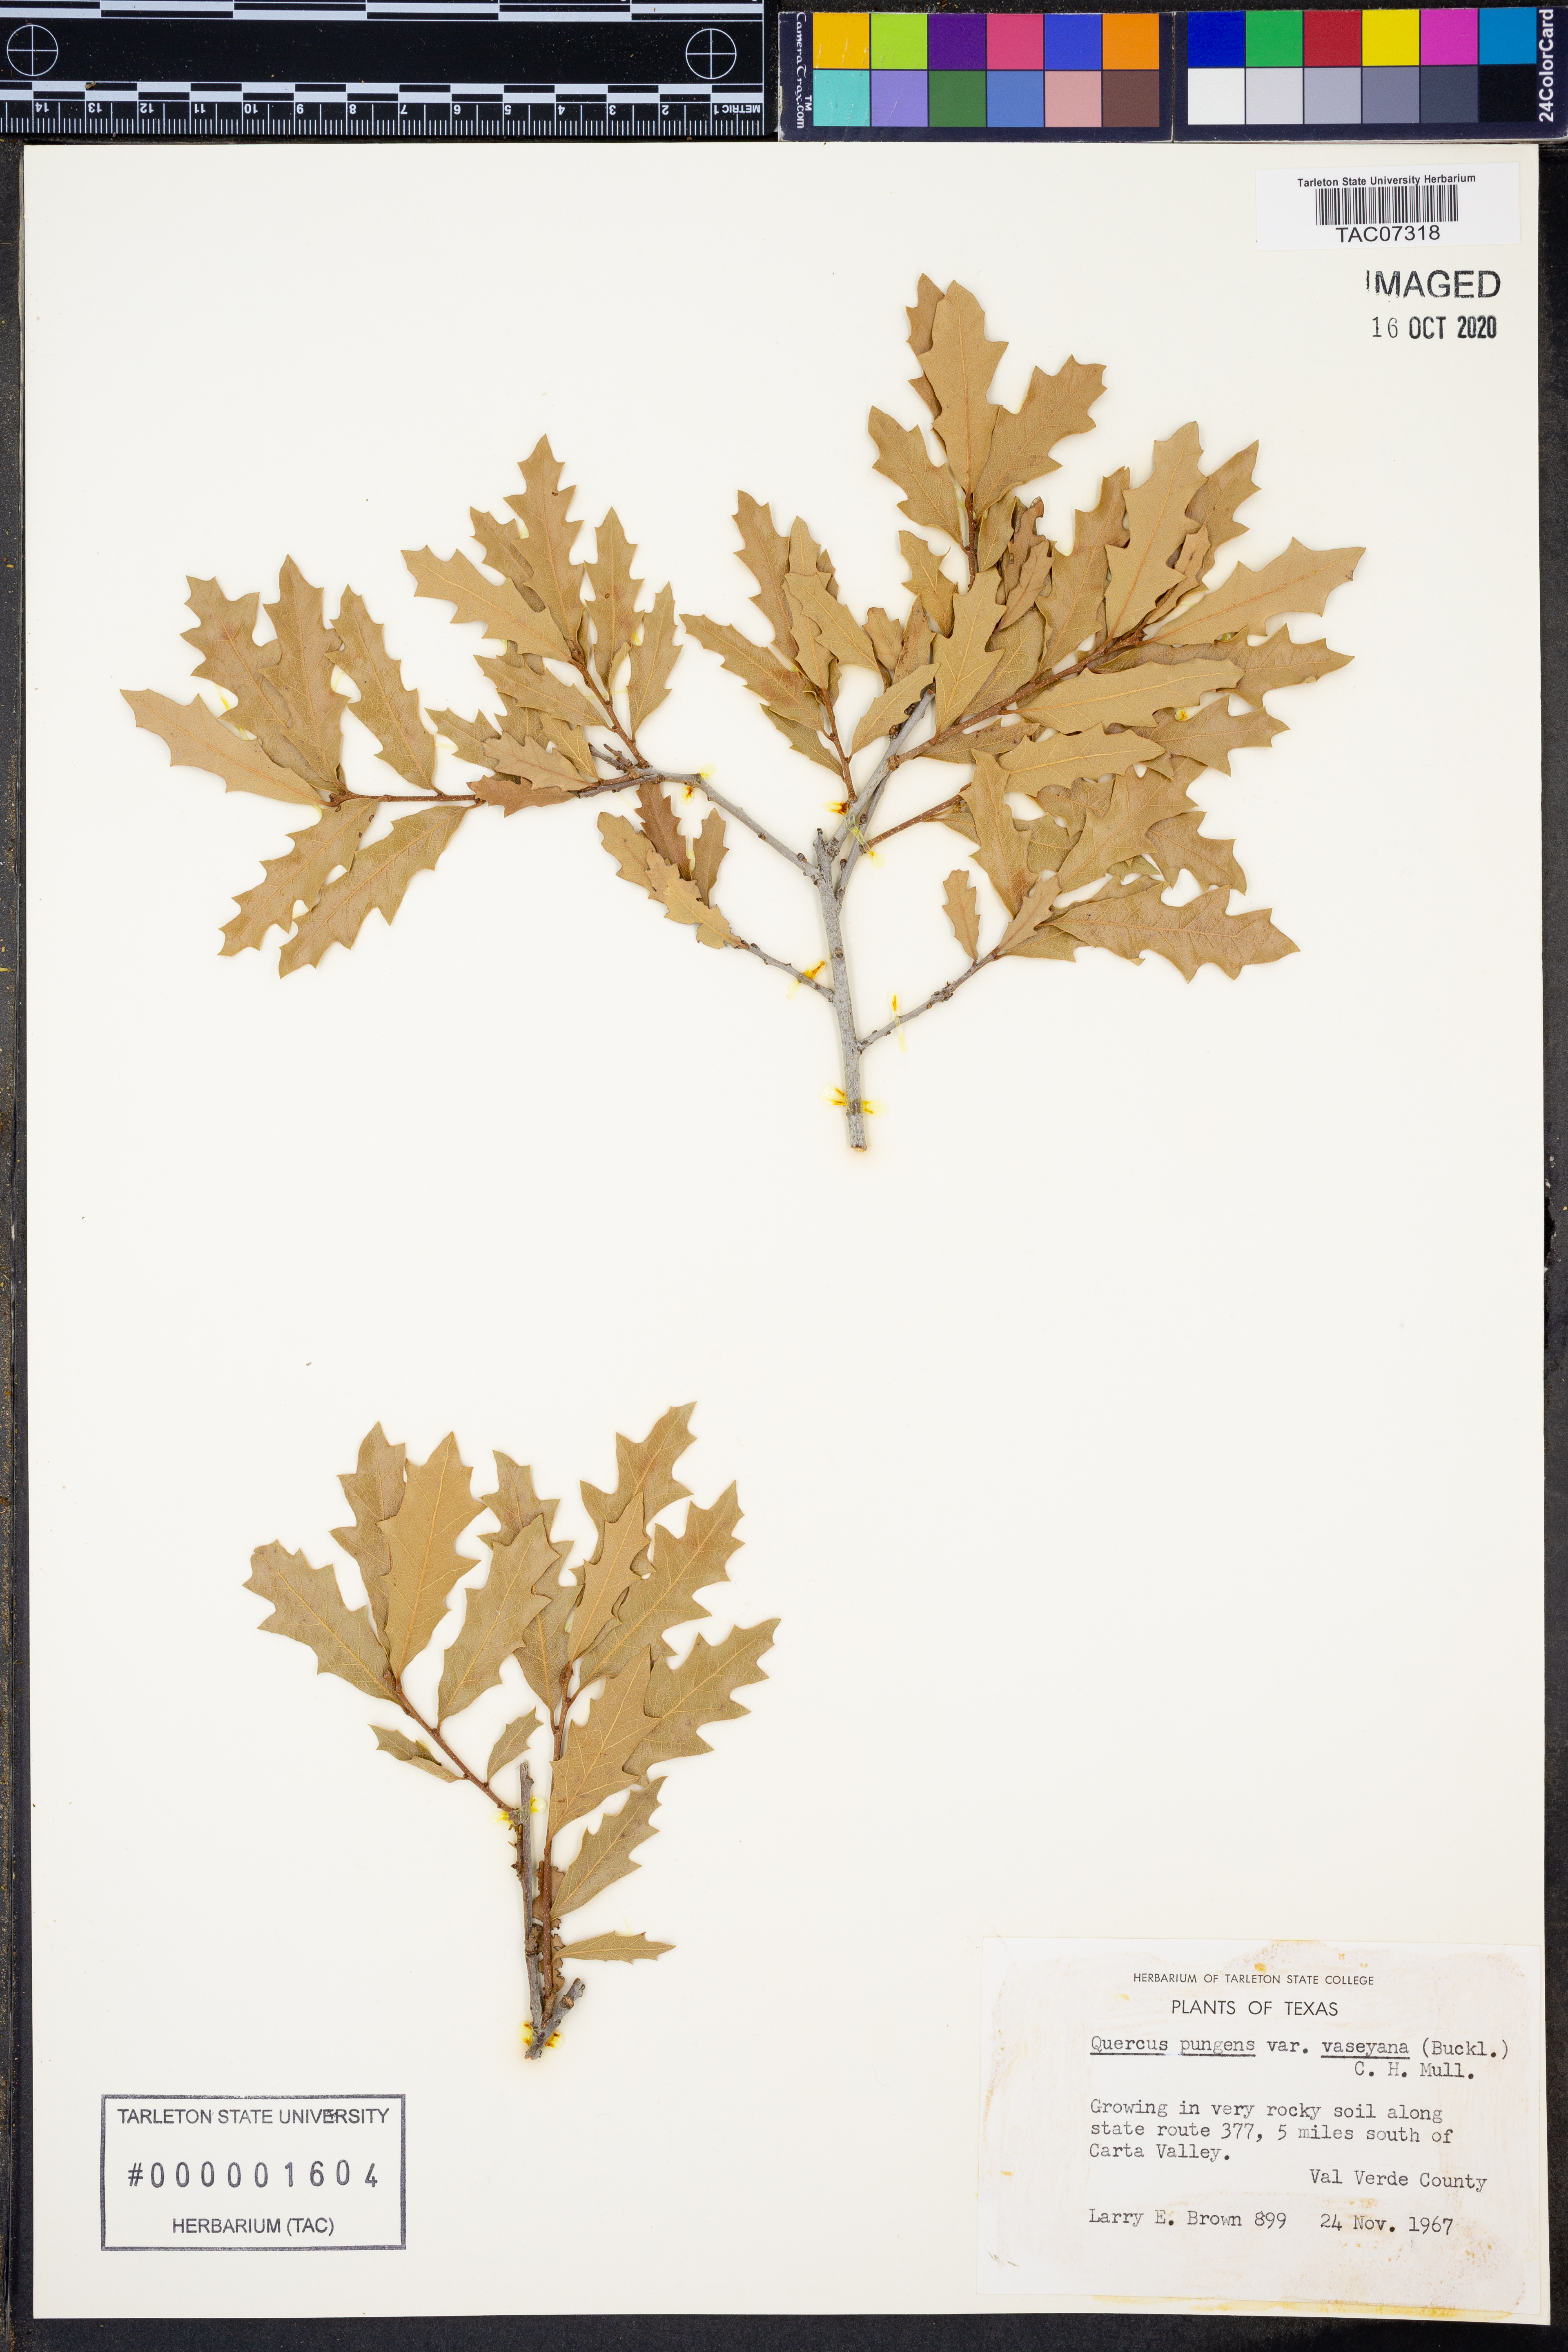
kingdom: Plantae
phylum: Tracheophyta
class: Magnoliopsida
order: Fagales
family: Fagaceae
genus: Quercus
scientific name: Quercus vaseyana
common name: Sandpaper oak
